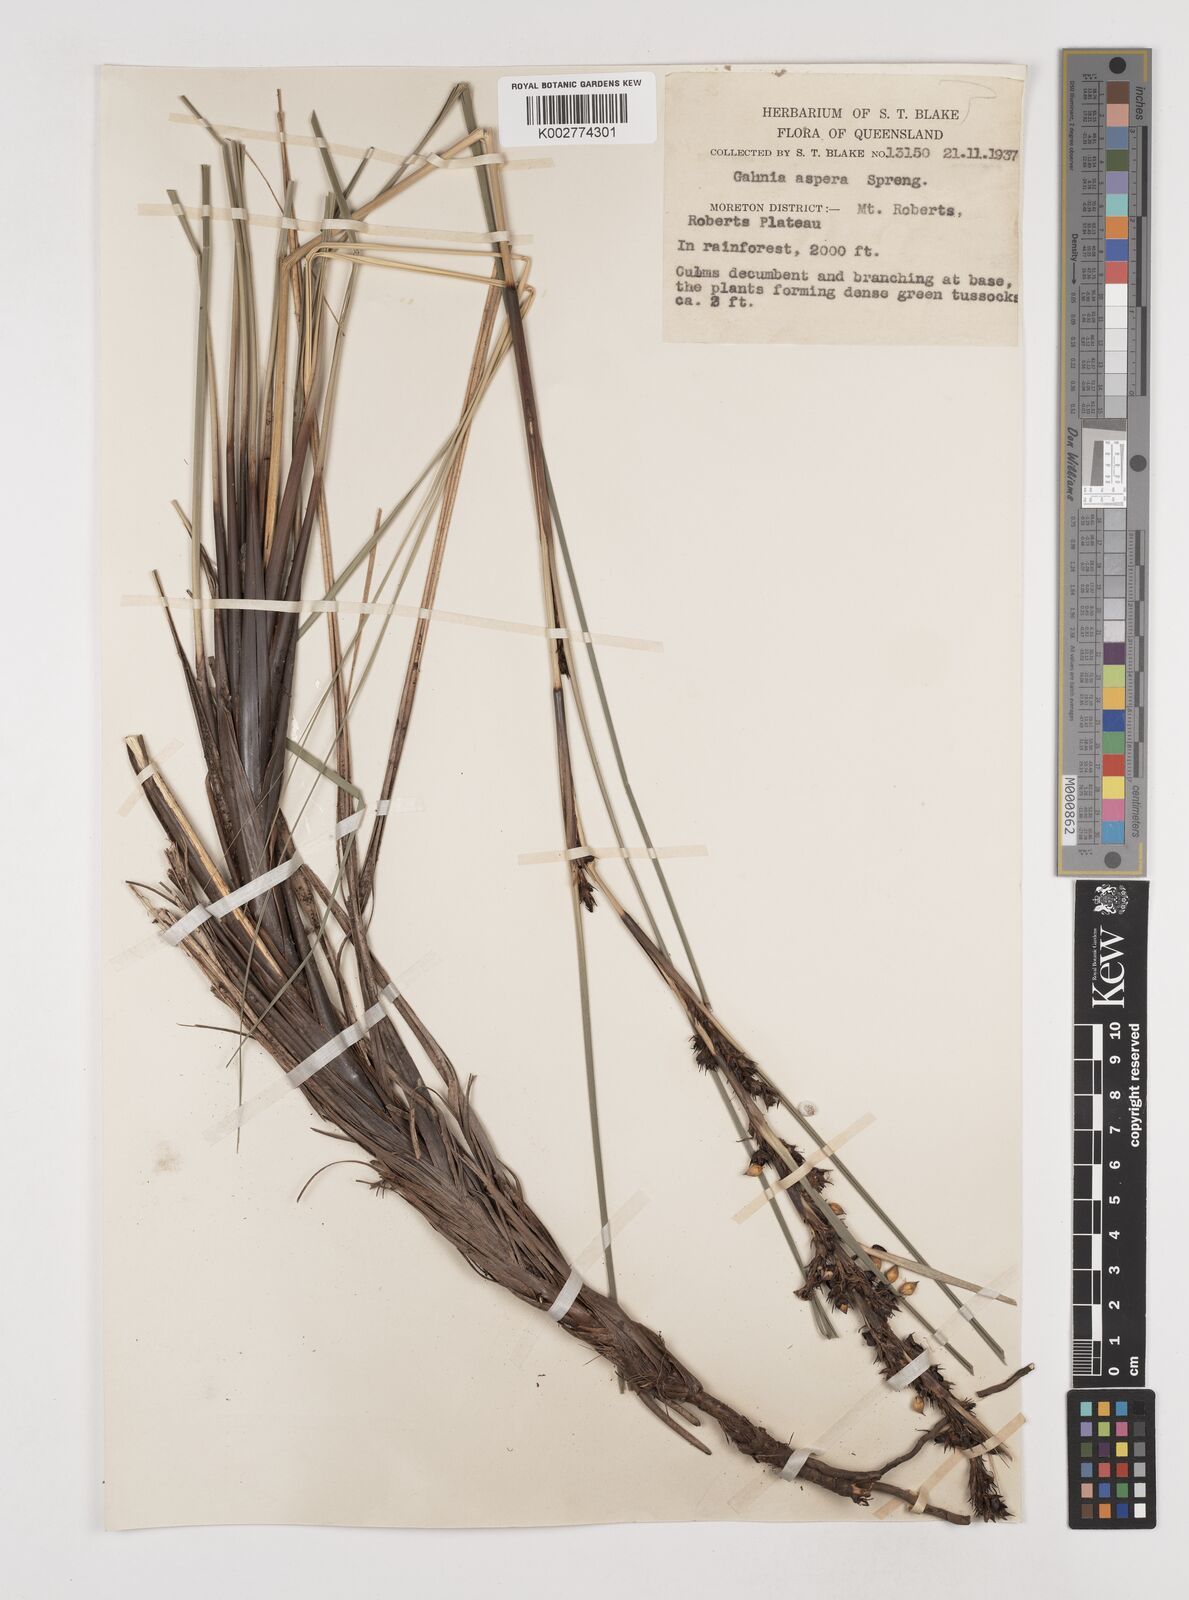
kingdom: Plantae
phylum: Tracheophyta
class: Liliopsida
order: Poales
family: Cyperaceae
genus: Gahnia
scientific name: Gahnia aspera
